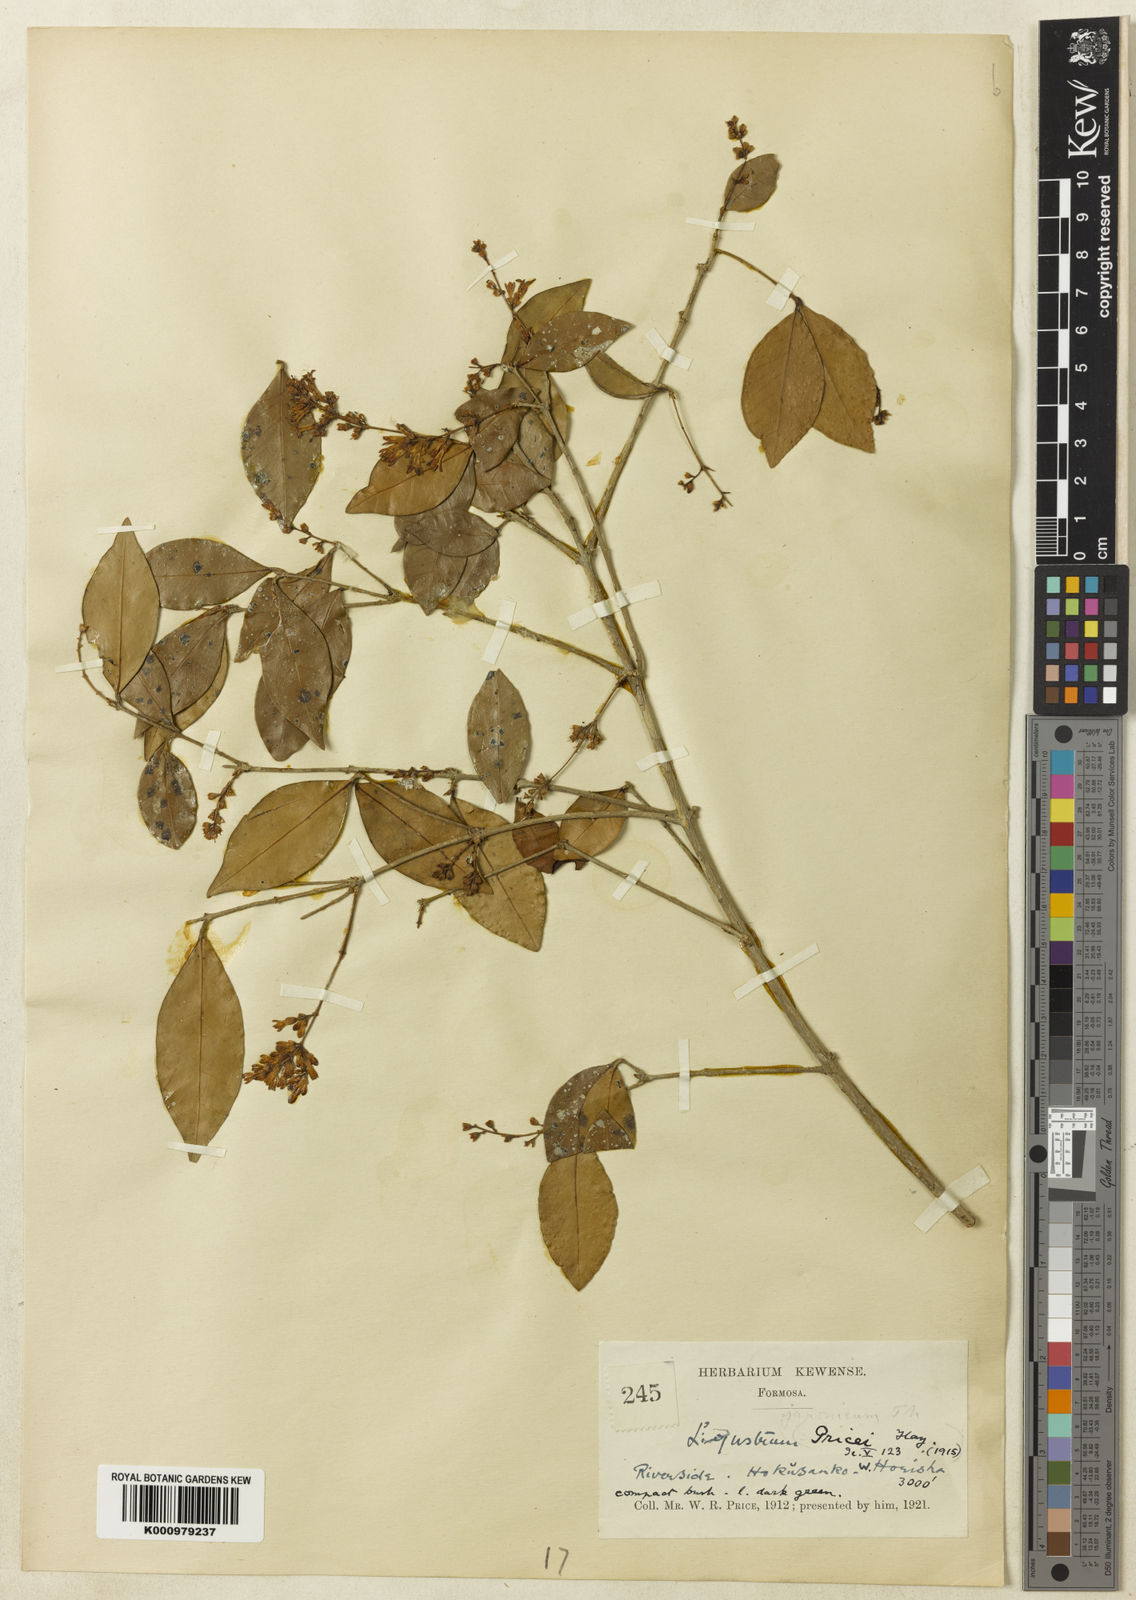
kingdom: Plantae
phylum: Tracheophyta
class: Magnoliopsida
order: Lamiales
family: Oleaceae
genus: Ligustrum
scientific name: Ligustrum pricei
